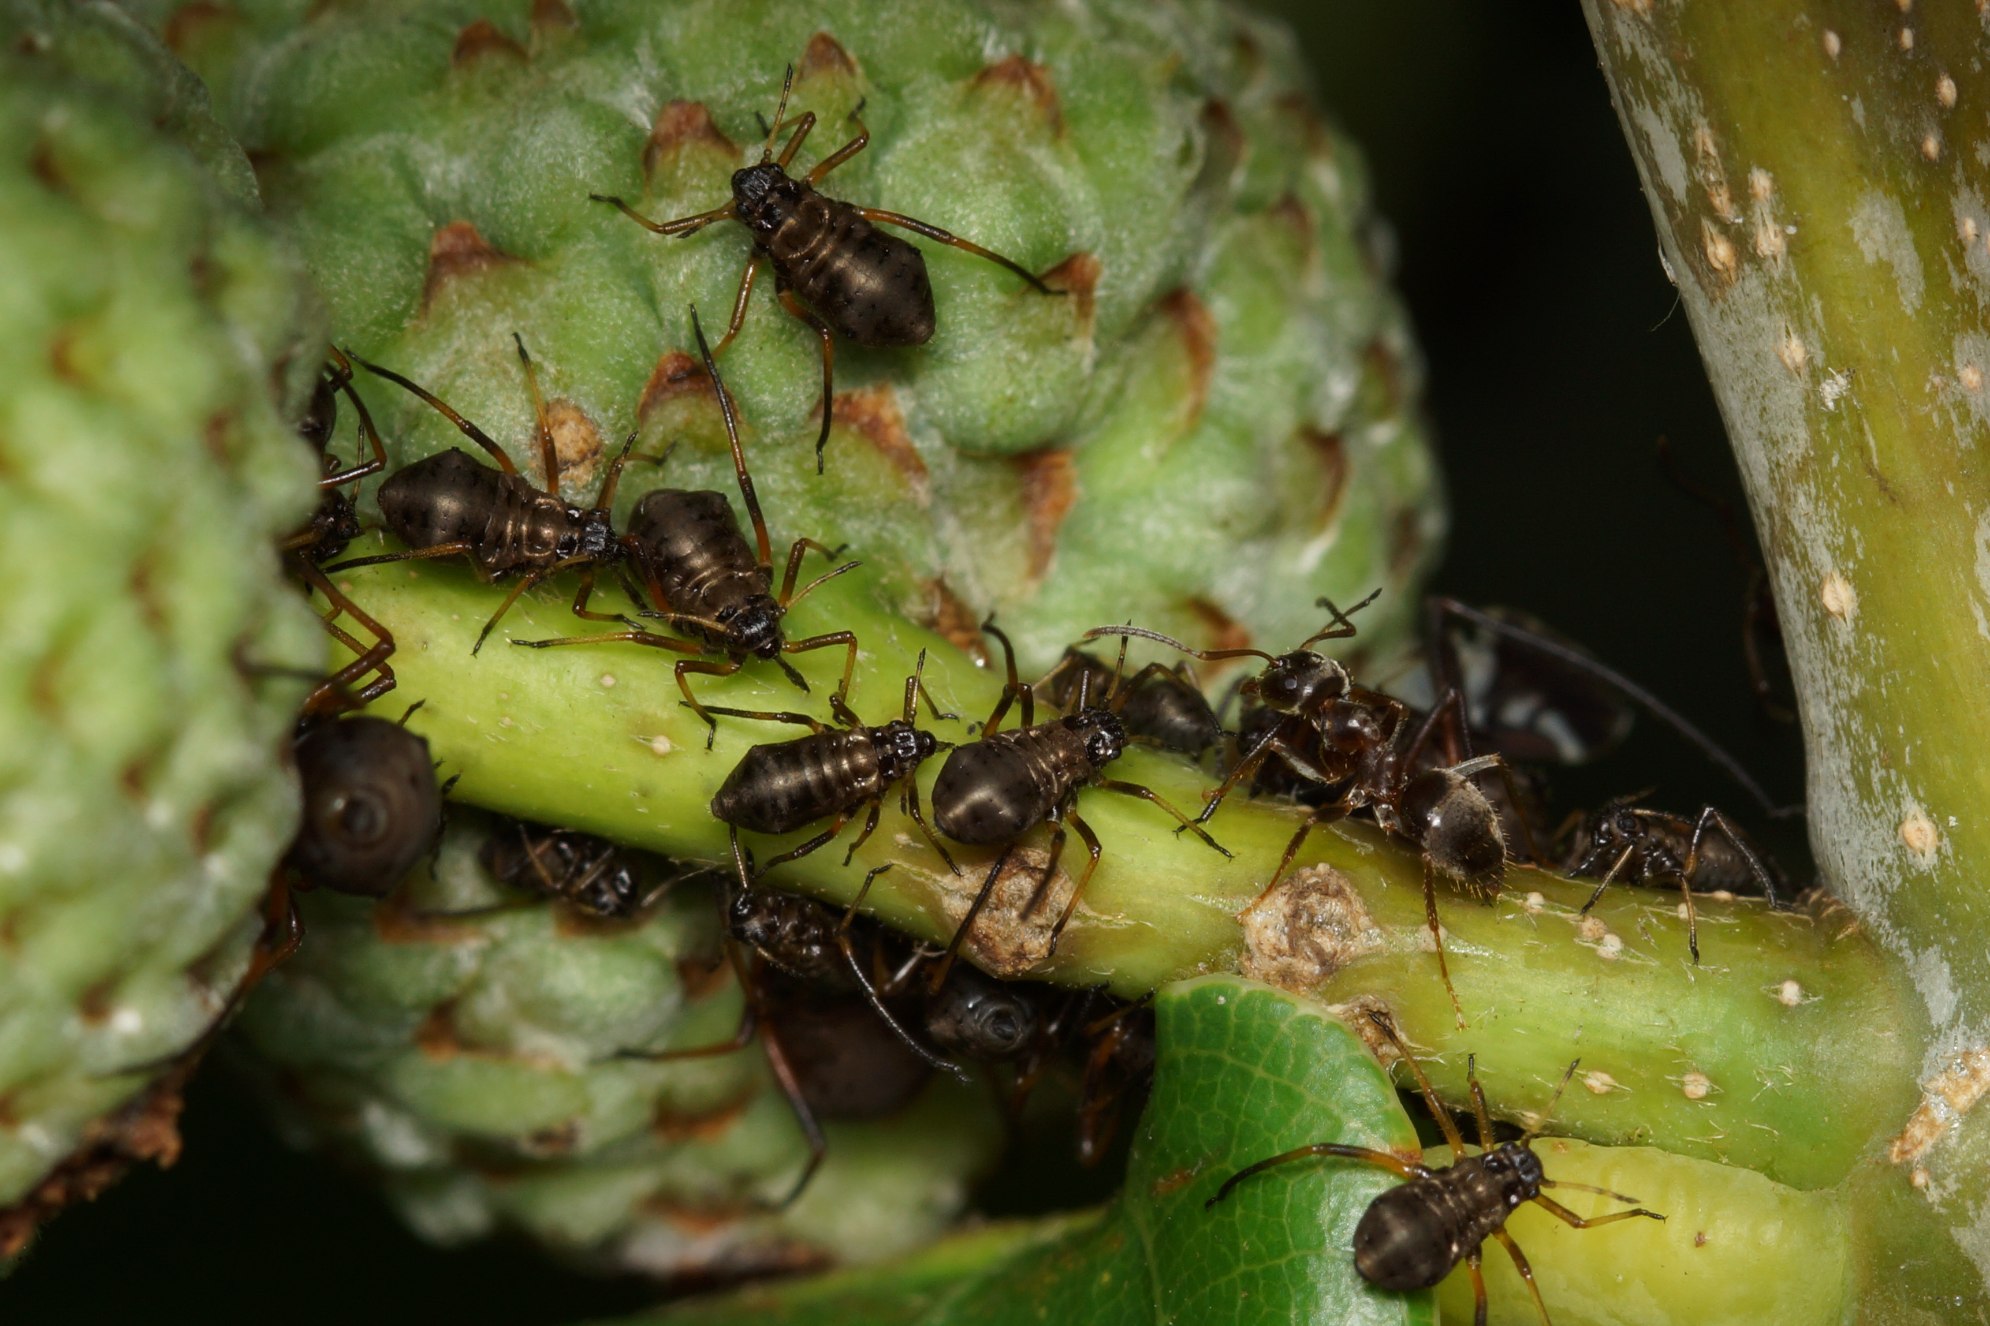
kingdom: Animalia
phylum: Arthropoda
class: Insecta
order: Hemiptera
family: Aphididae
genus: Lachnus
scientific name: Lachnus roboris
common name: Egegrenbladlus
